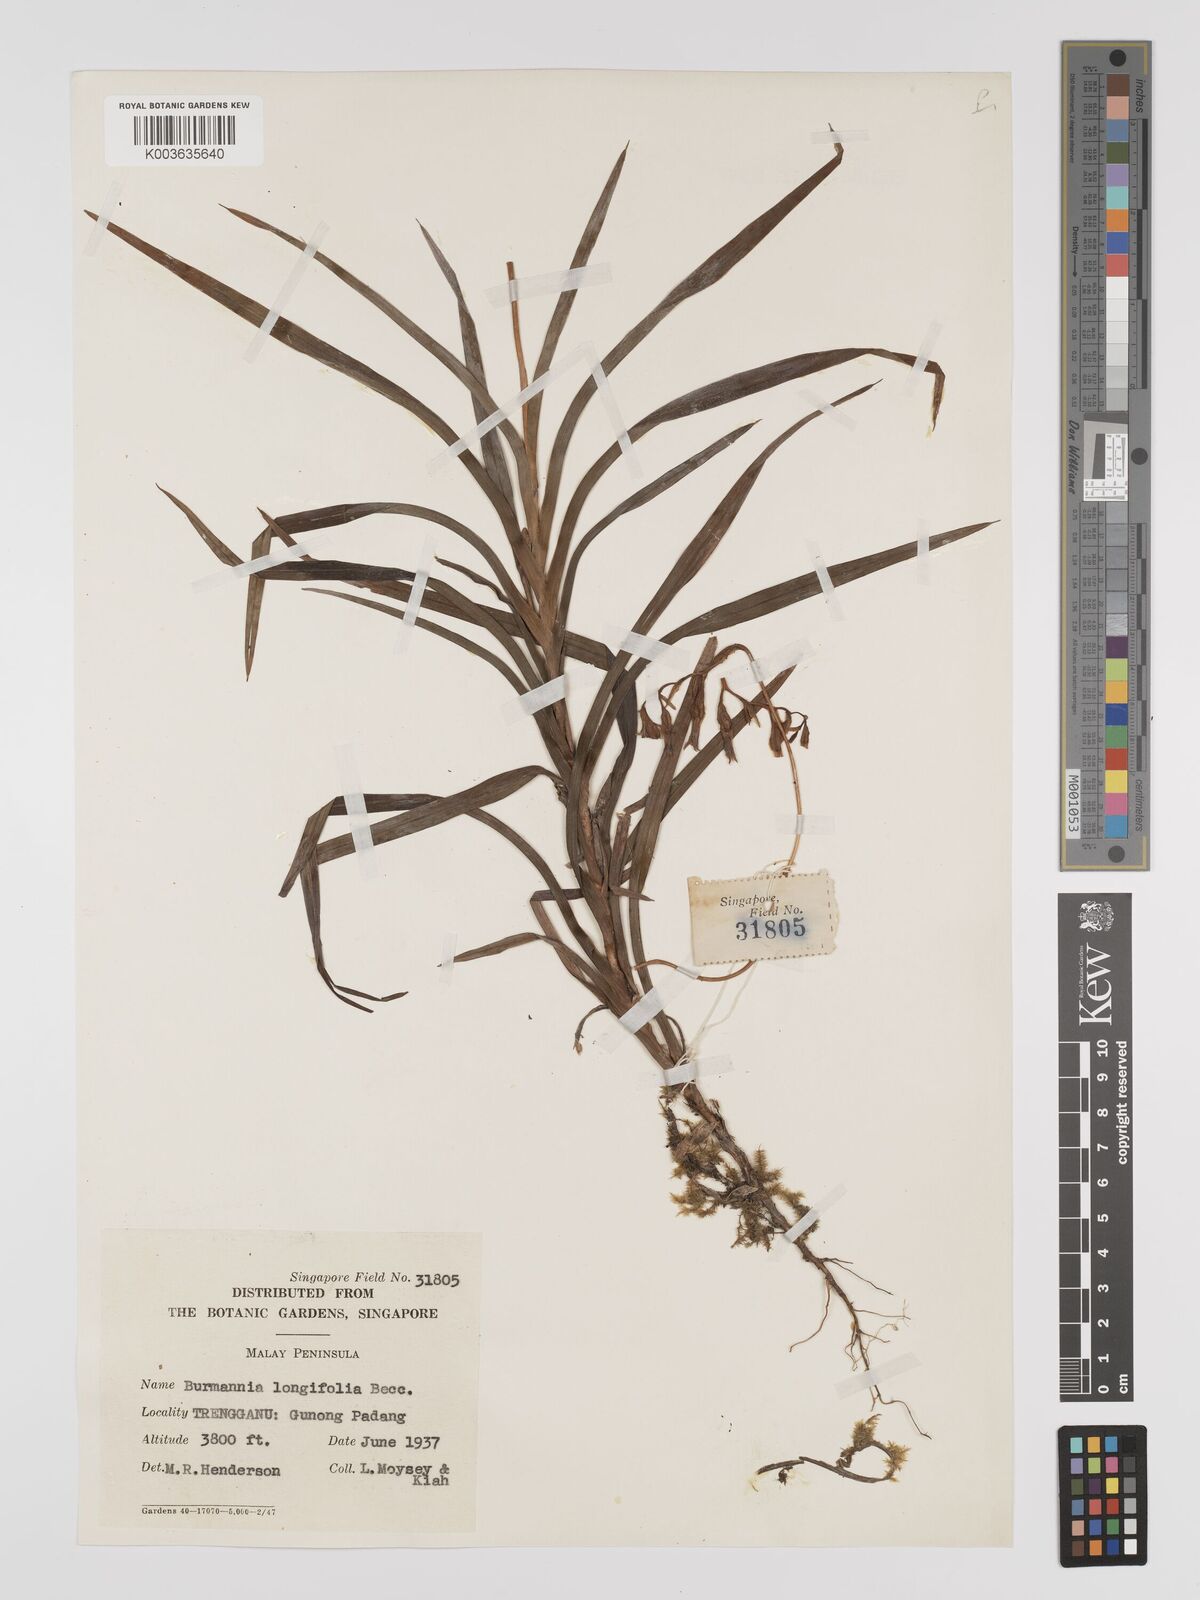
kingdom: Plantae
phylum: Tracheophyta
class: Liliopsida
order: Dioscoreales
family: Burmanniaceae
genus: Burmannia
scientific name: Burmannia longifolia
